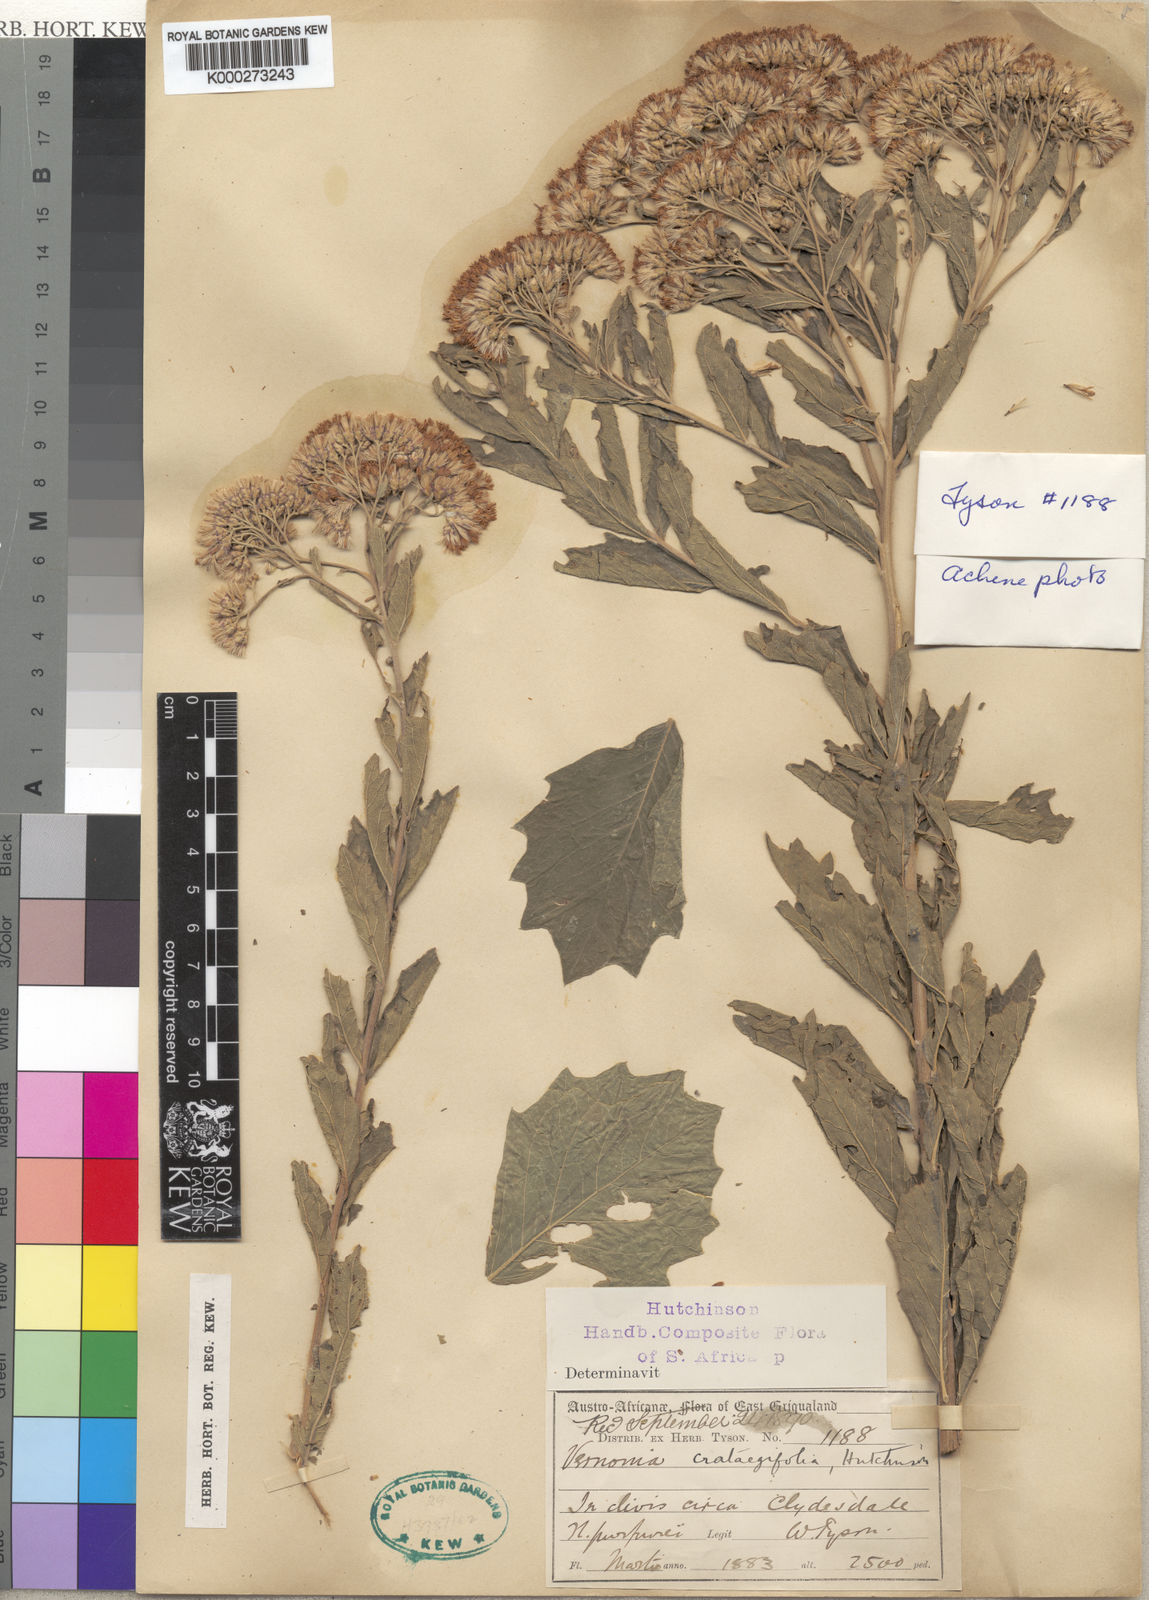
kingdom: Plantae
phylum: Tracheophyta
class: Magnoliopsida
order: Asterales
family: Asteraceae
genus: Gymnanthemum
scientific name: Gymnanthemum crataegifolium
